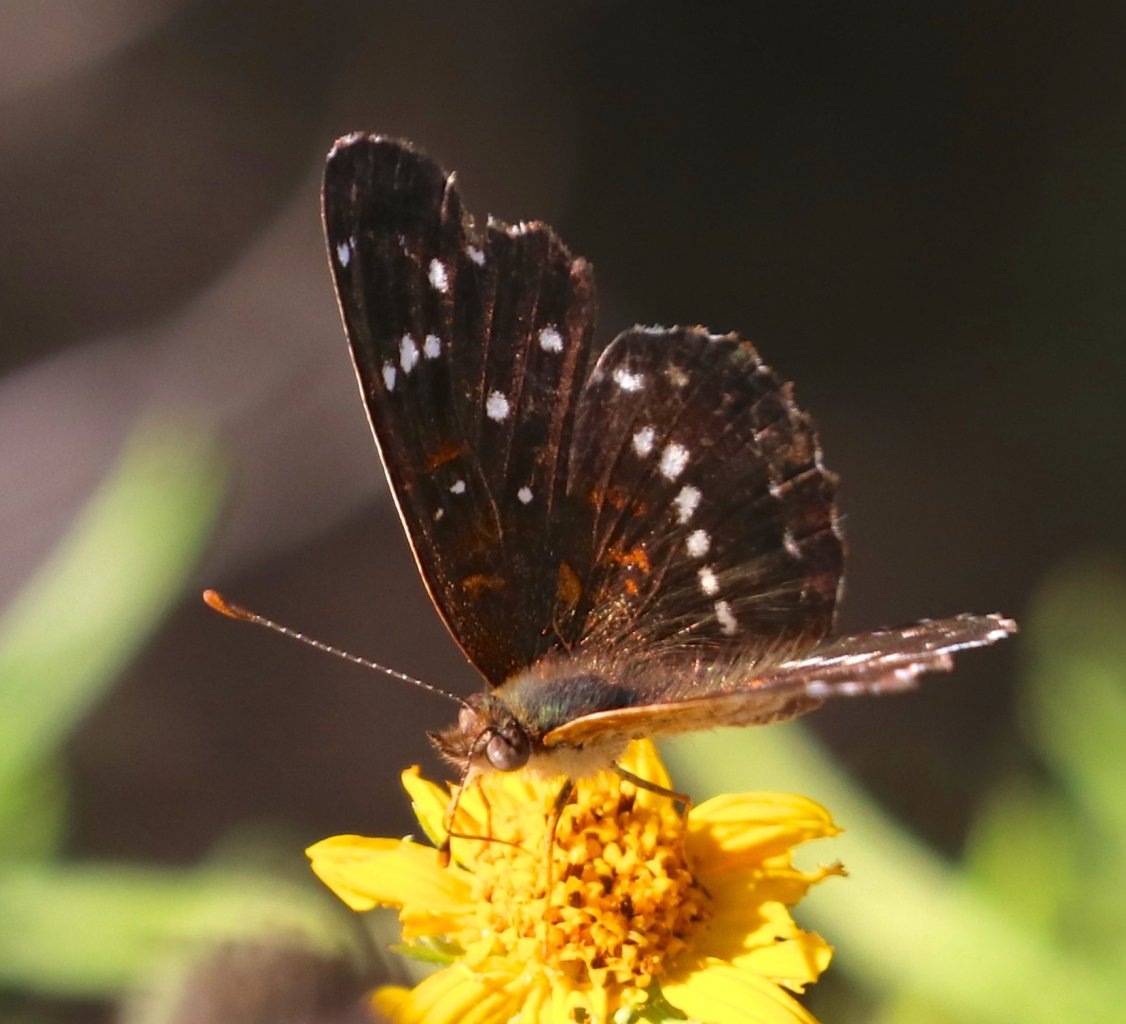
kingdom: Animalia
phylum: Arthropoda
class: Insecta
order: Lepidoptera
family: Nymphalidae
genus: Anthanassa
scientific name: Anthanassa texana
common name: Texan Crescent
